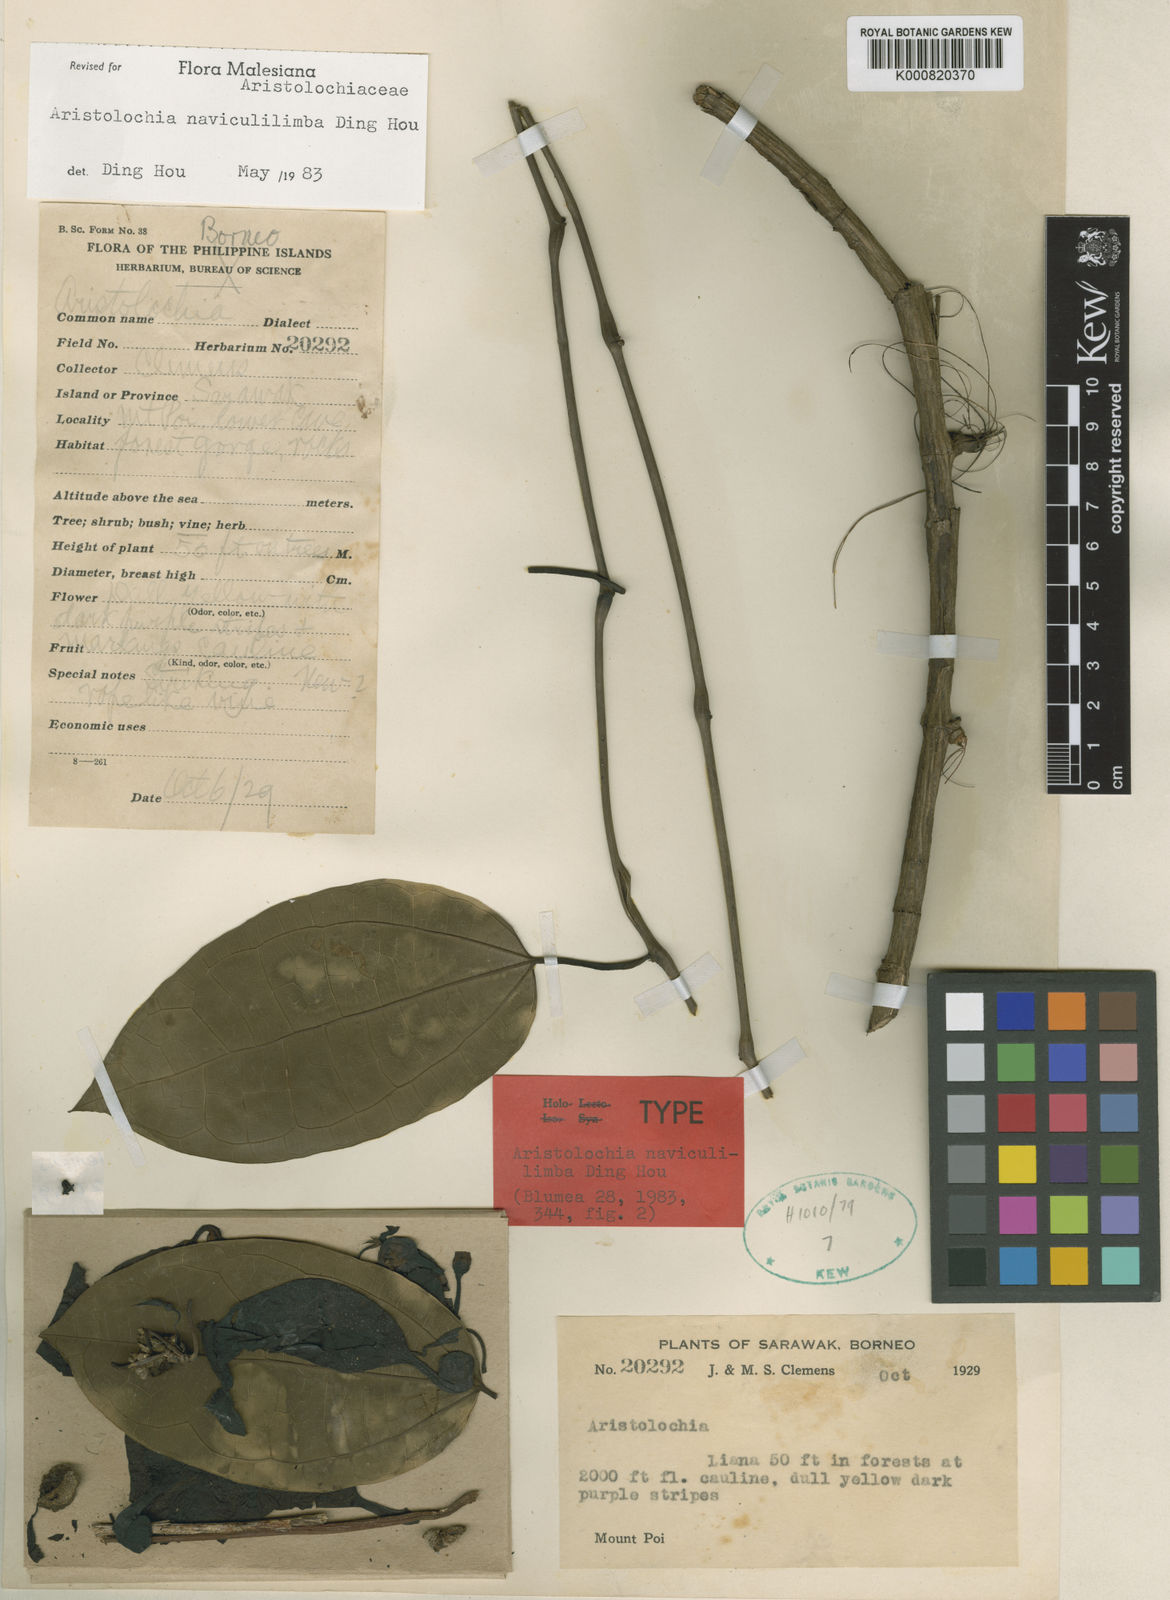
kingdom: Plantae
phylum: Tracheophyta
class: Magnoliopsida
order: Piperales
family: Aristolochiaceae
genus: Aristolochia
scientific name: Aristolochia naviculilimba
